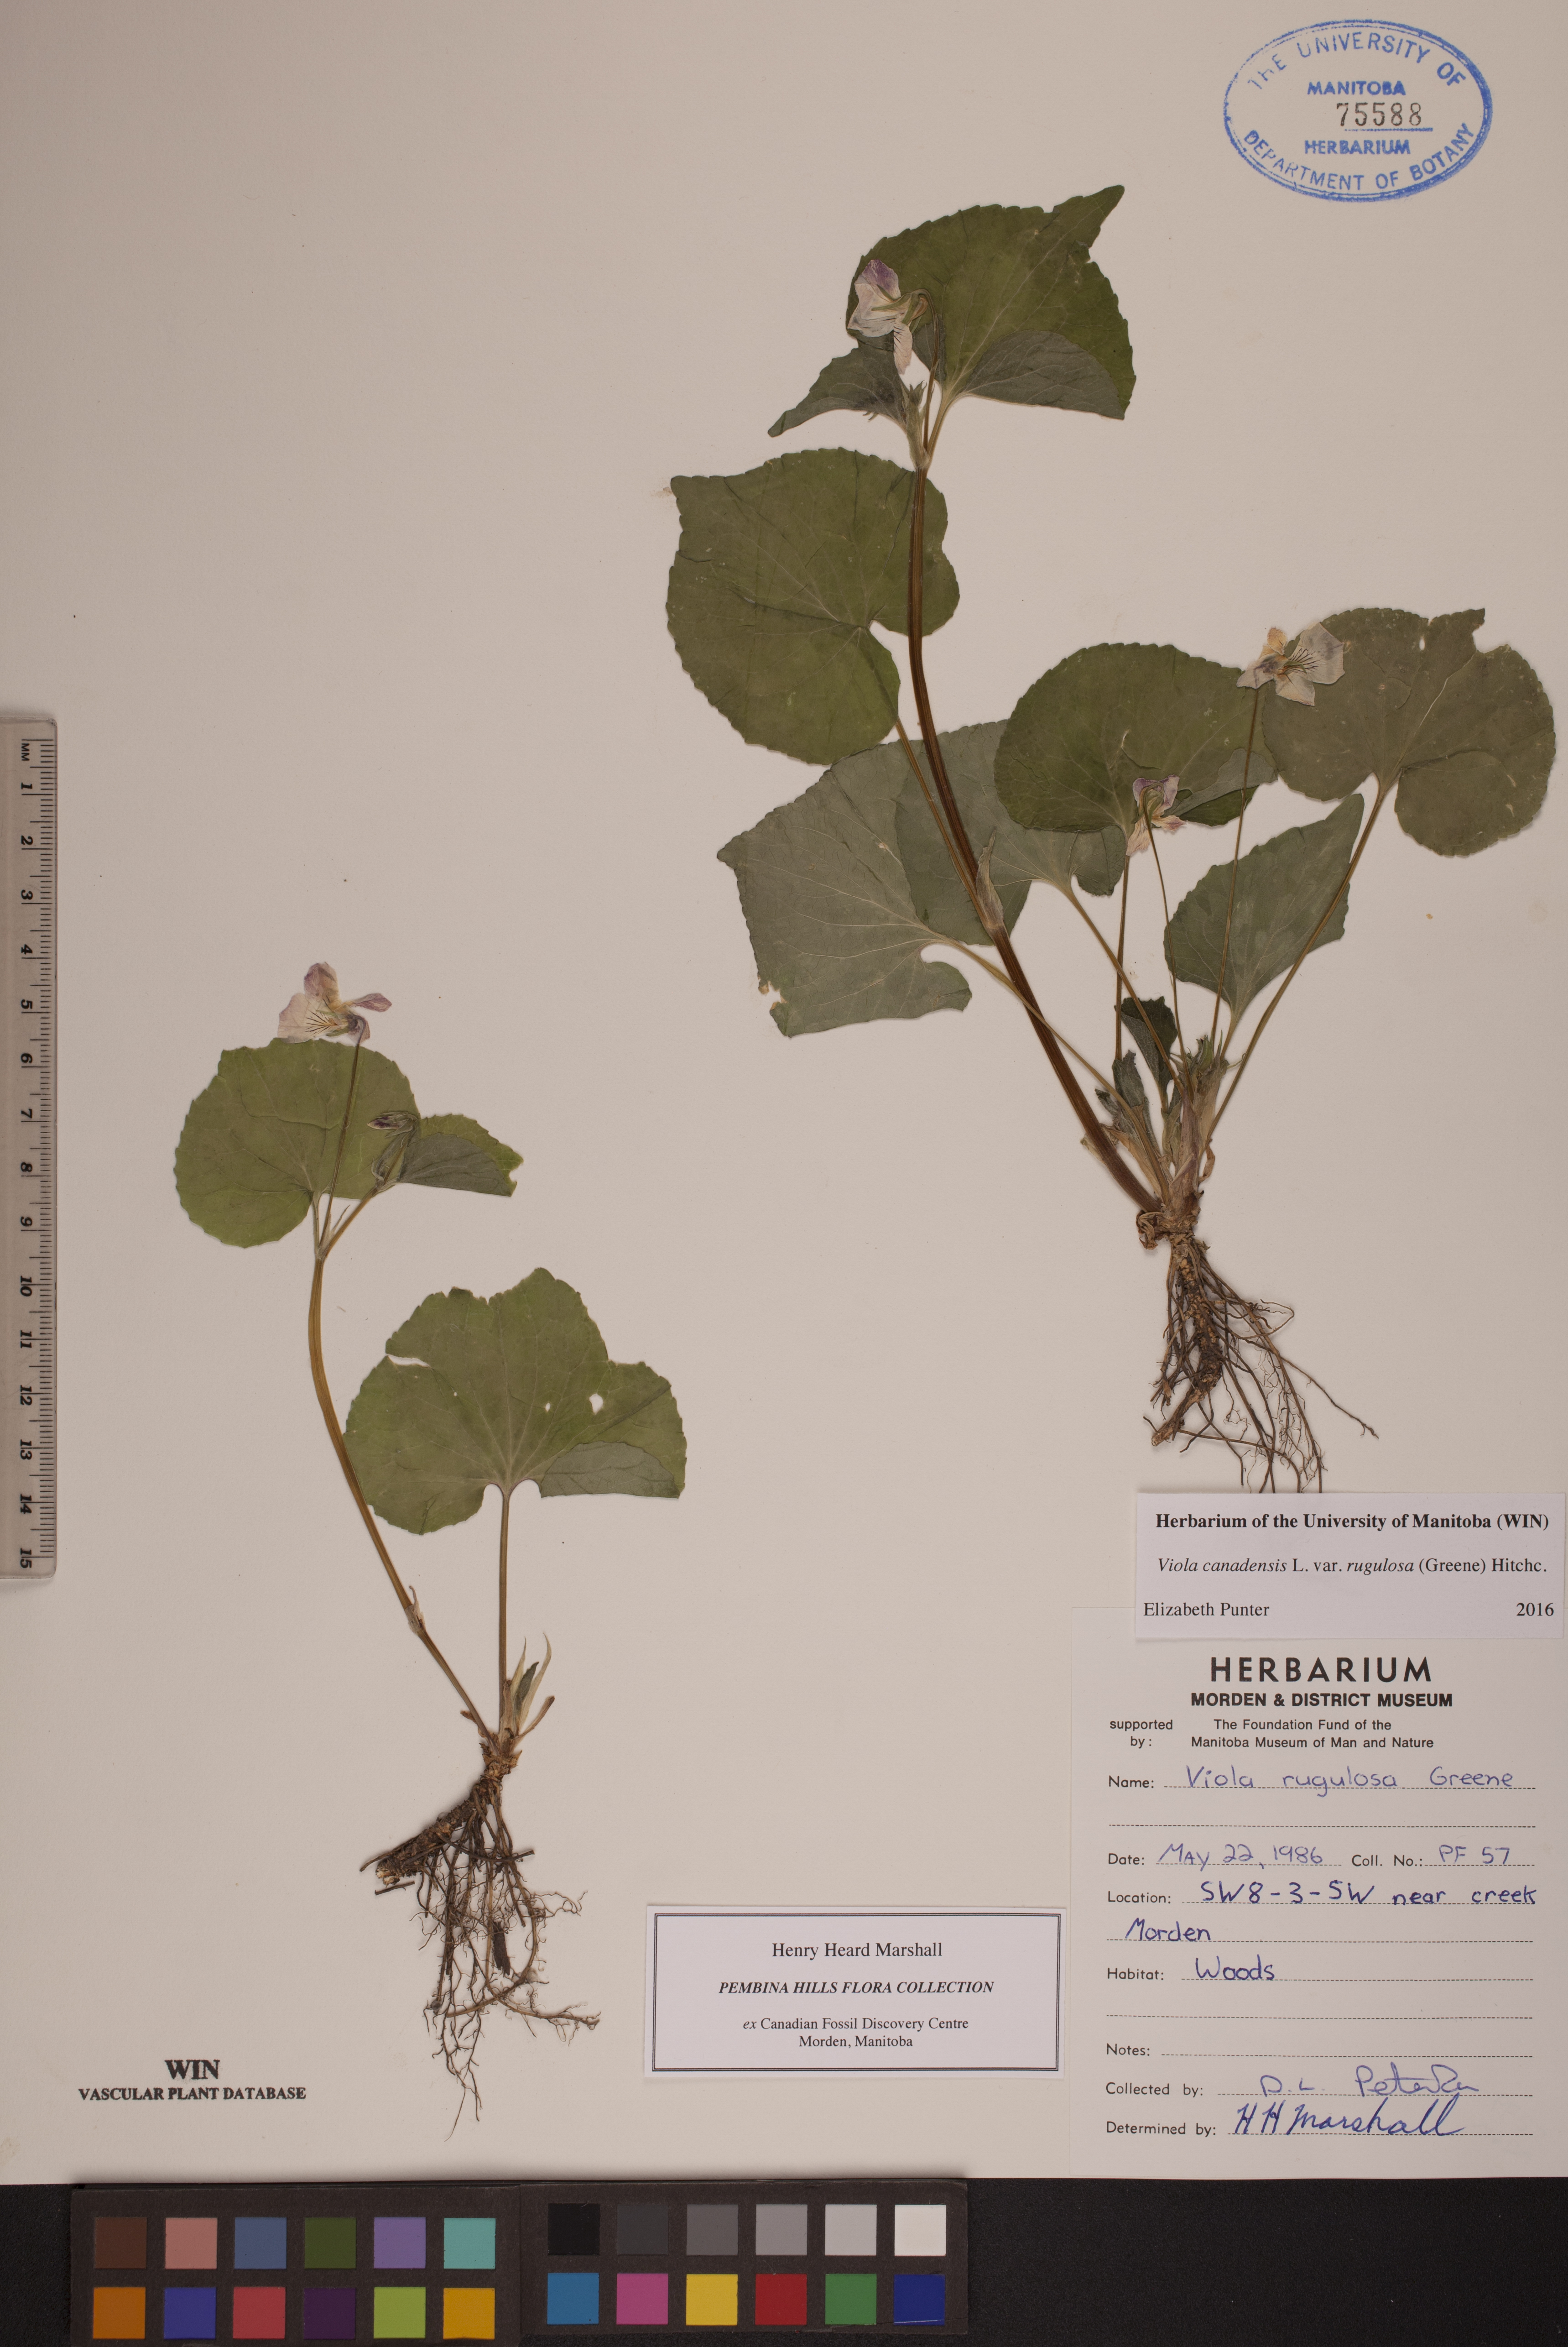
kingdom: Plantae
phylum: Tracheophyta
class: Magnoliopsida
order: Malpighiales
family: Violaceae
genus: Viola
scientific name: Viola rugulosa
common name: Creeping-root violet
